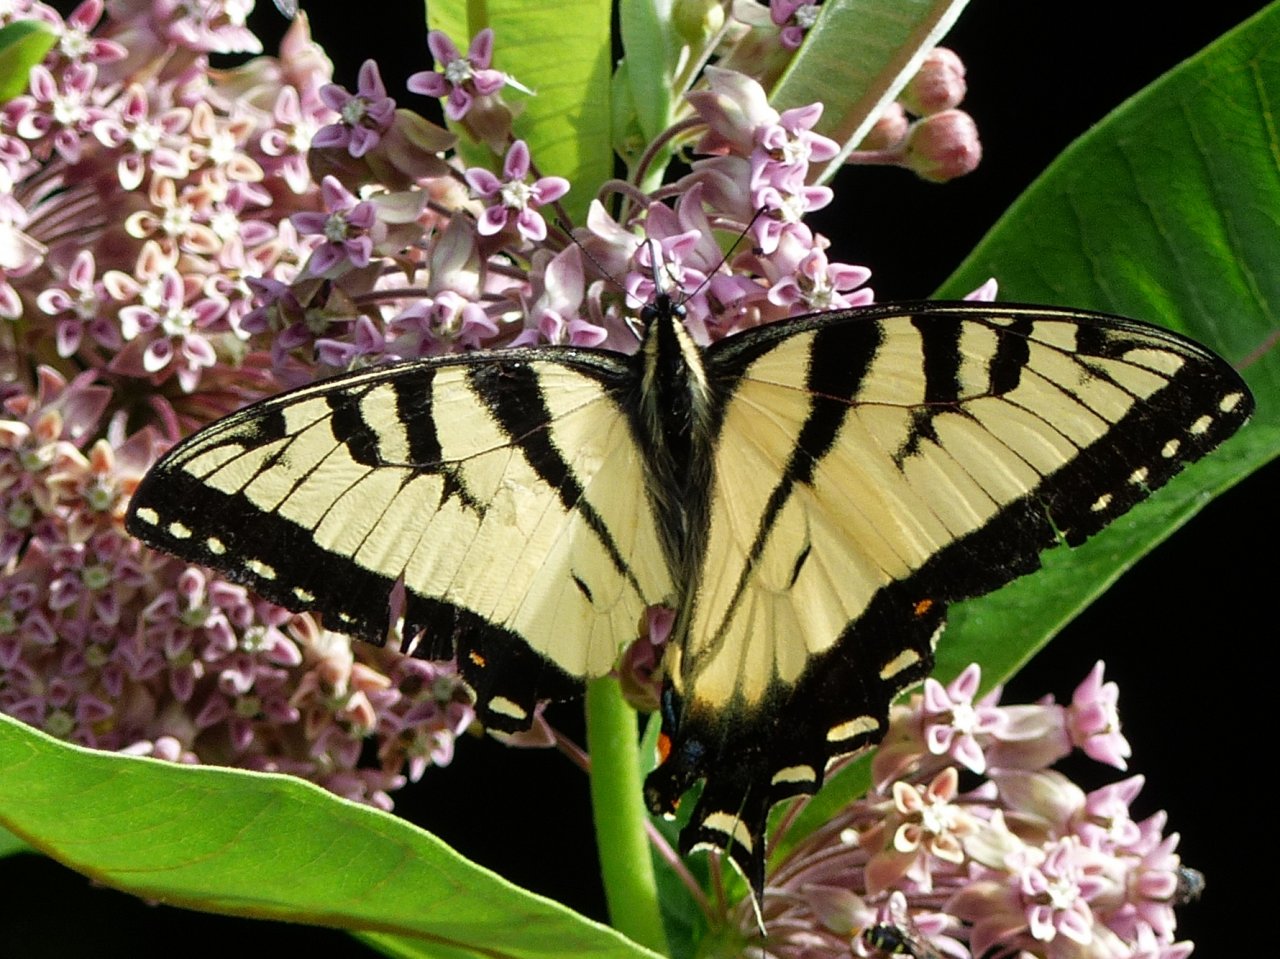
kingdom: Animalia
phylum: Arthropoda
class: Insecta
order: Lepidoptera
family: Papilionidae
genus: Pterourus
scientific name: Pterourus glaucus
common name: Eastern Tiger Swallowtail
